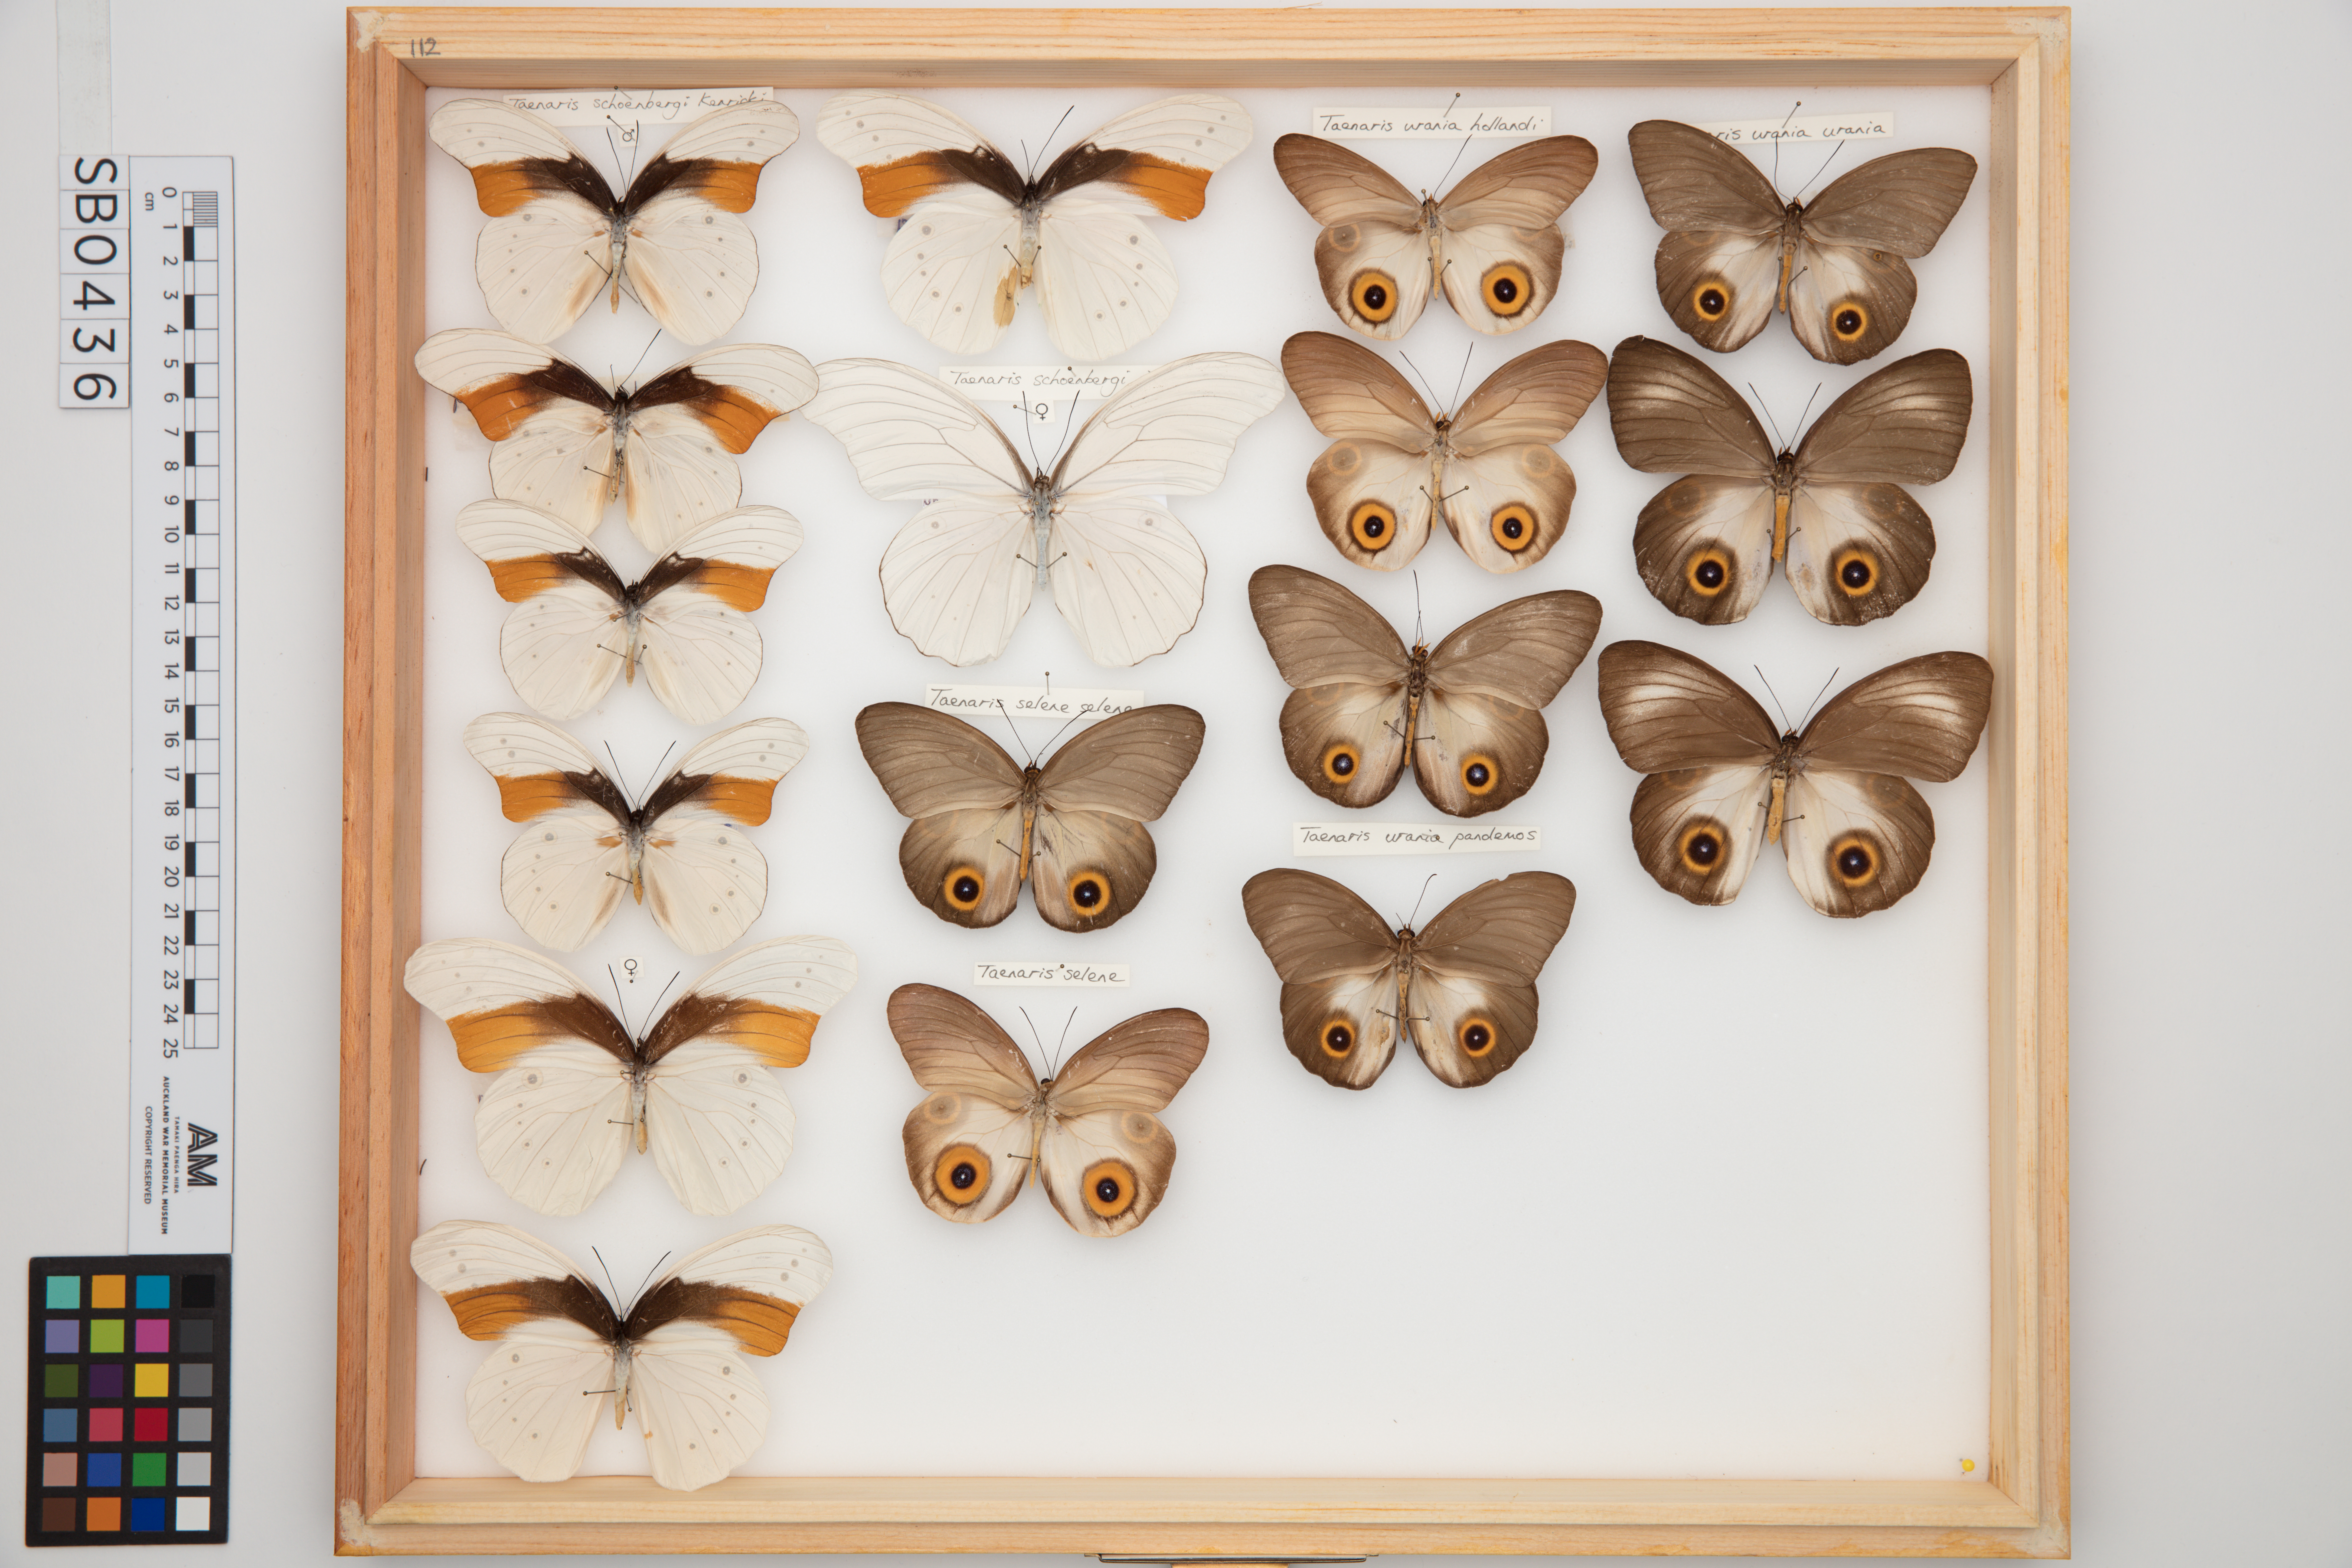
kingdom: Animalia
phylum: Arthropoda
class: Insecta
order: Lepidoptera
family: Nymphalidae
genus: Taenaris
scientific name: Taenaris urania
